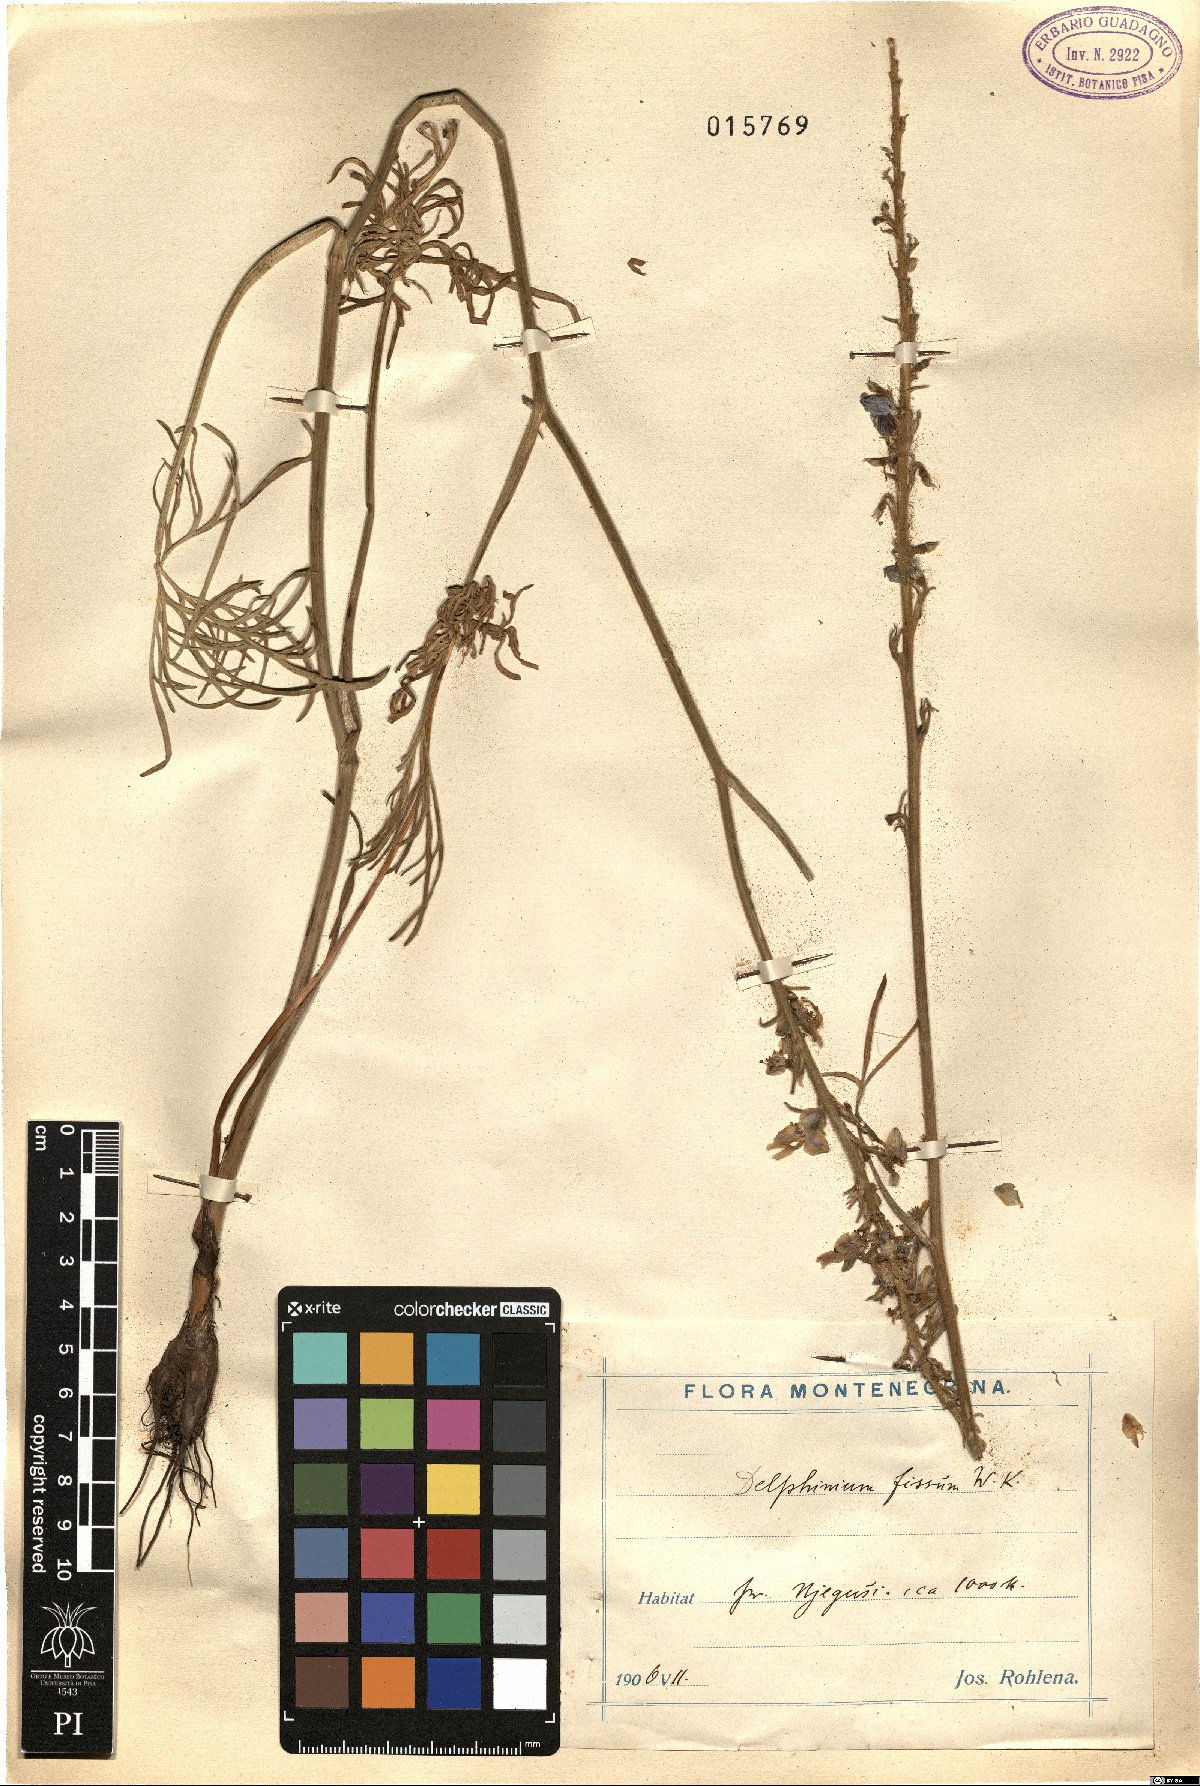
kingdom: Plantae
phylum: Tracheophyta
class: Magnoliopsida
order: Ranunculales
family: Ranunculaceae
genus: Delphinium
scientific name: Delphinium fissum
